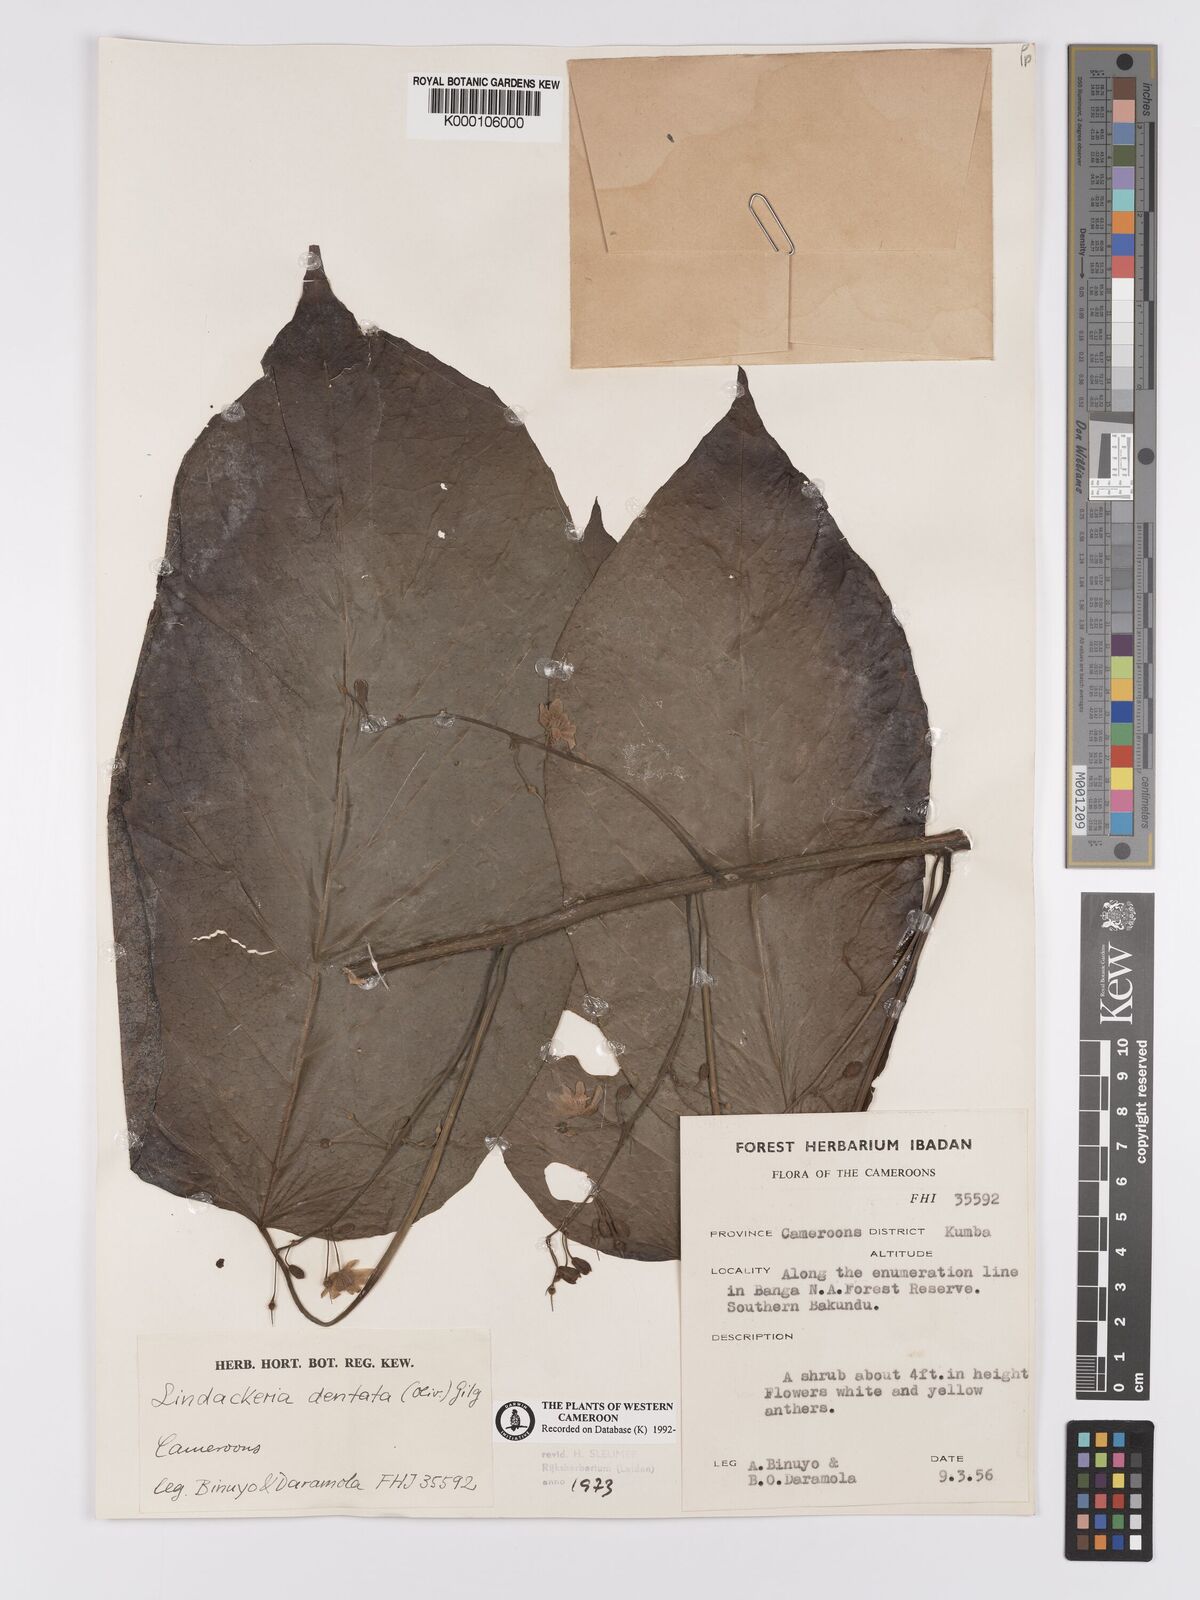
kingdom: Plantae
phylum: Tracheophyta
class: Magnoliopsida
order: Malpighiales
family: Achariaceae
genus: Lindackeria
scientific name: Lindackeria dentata
